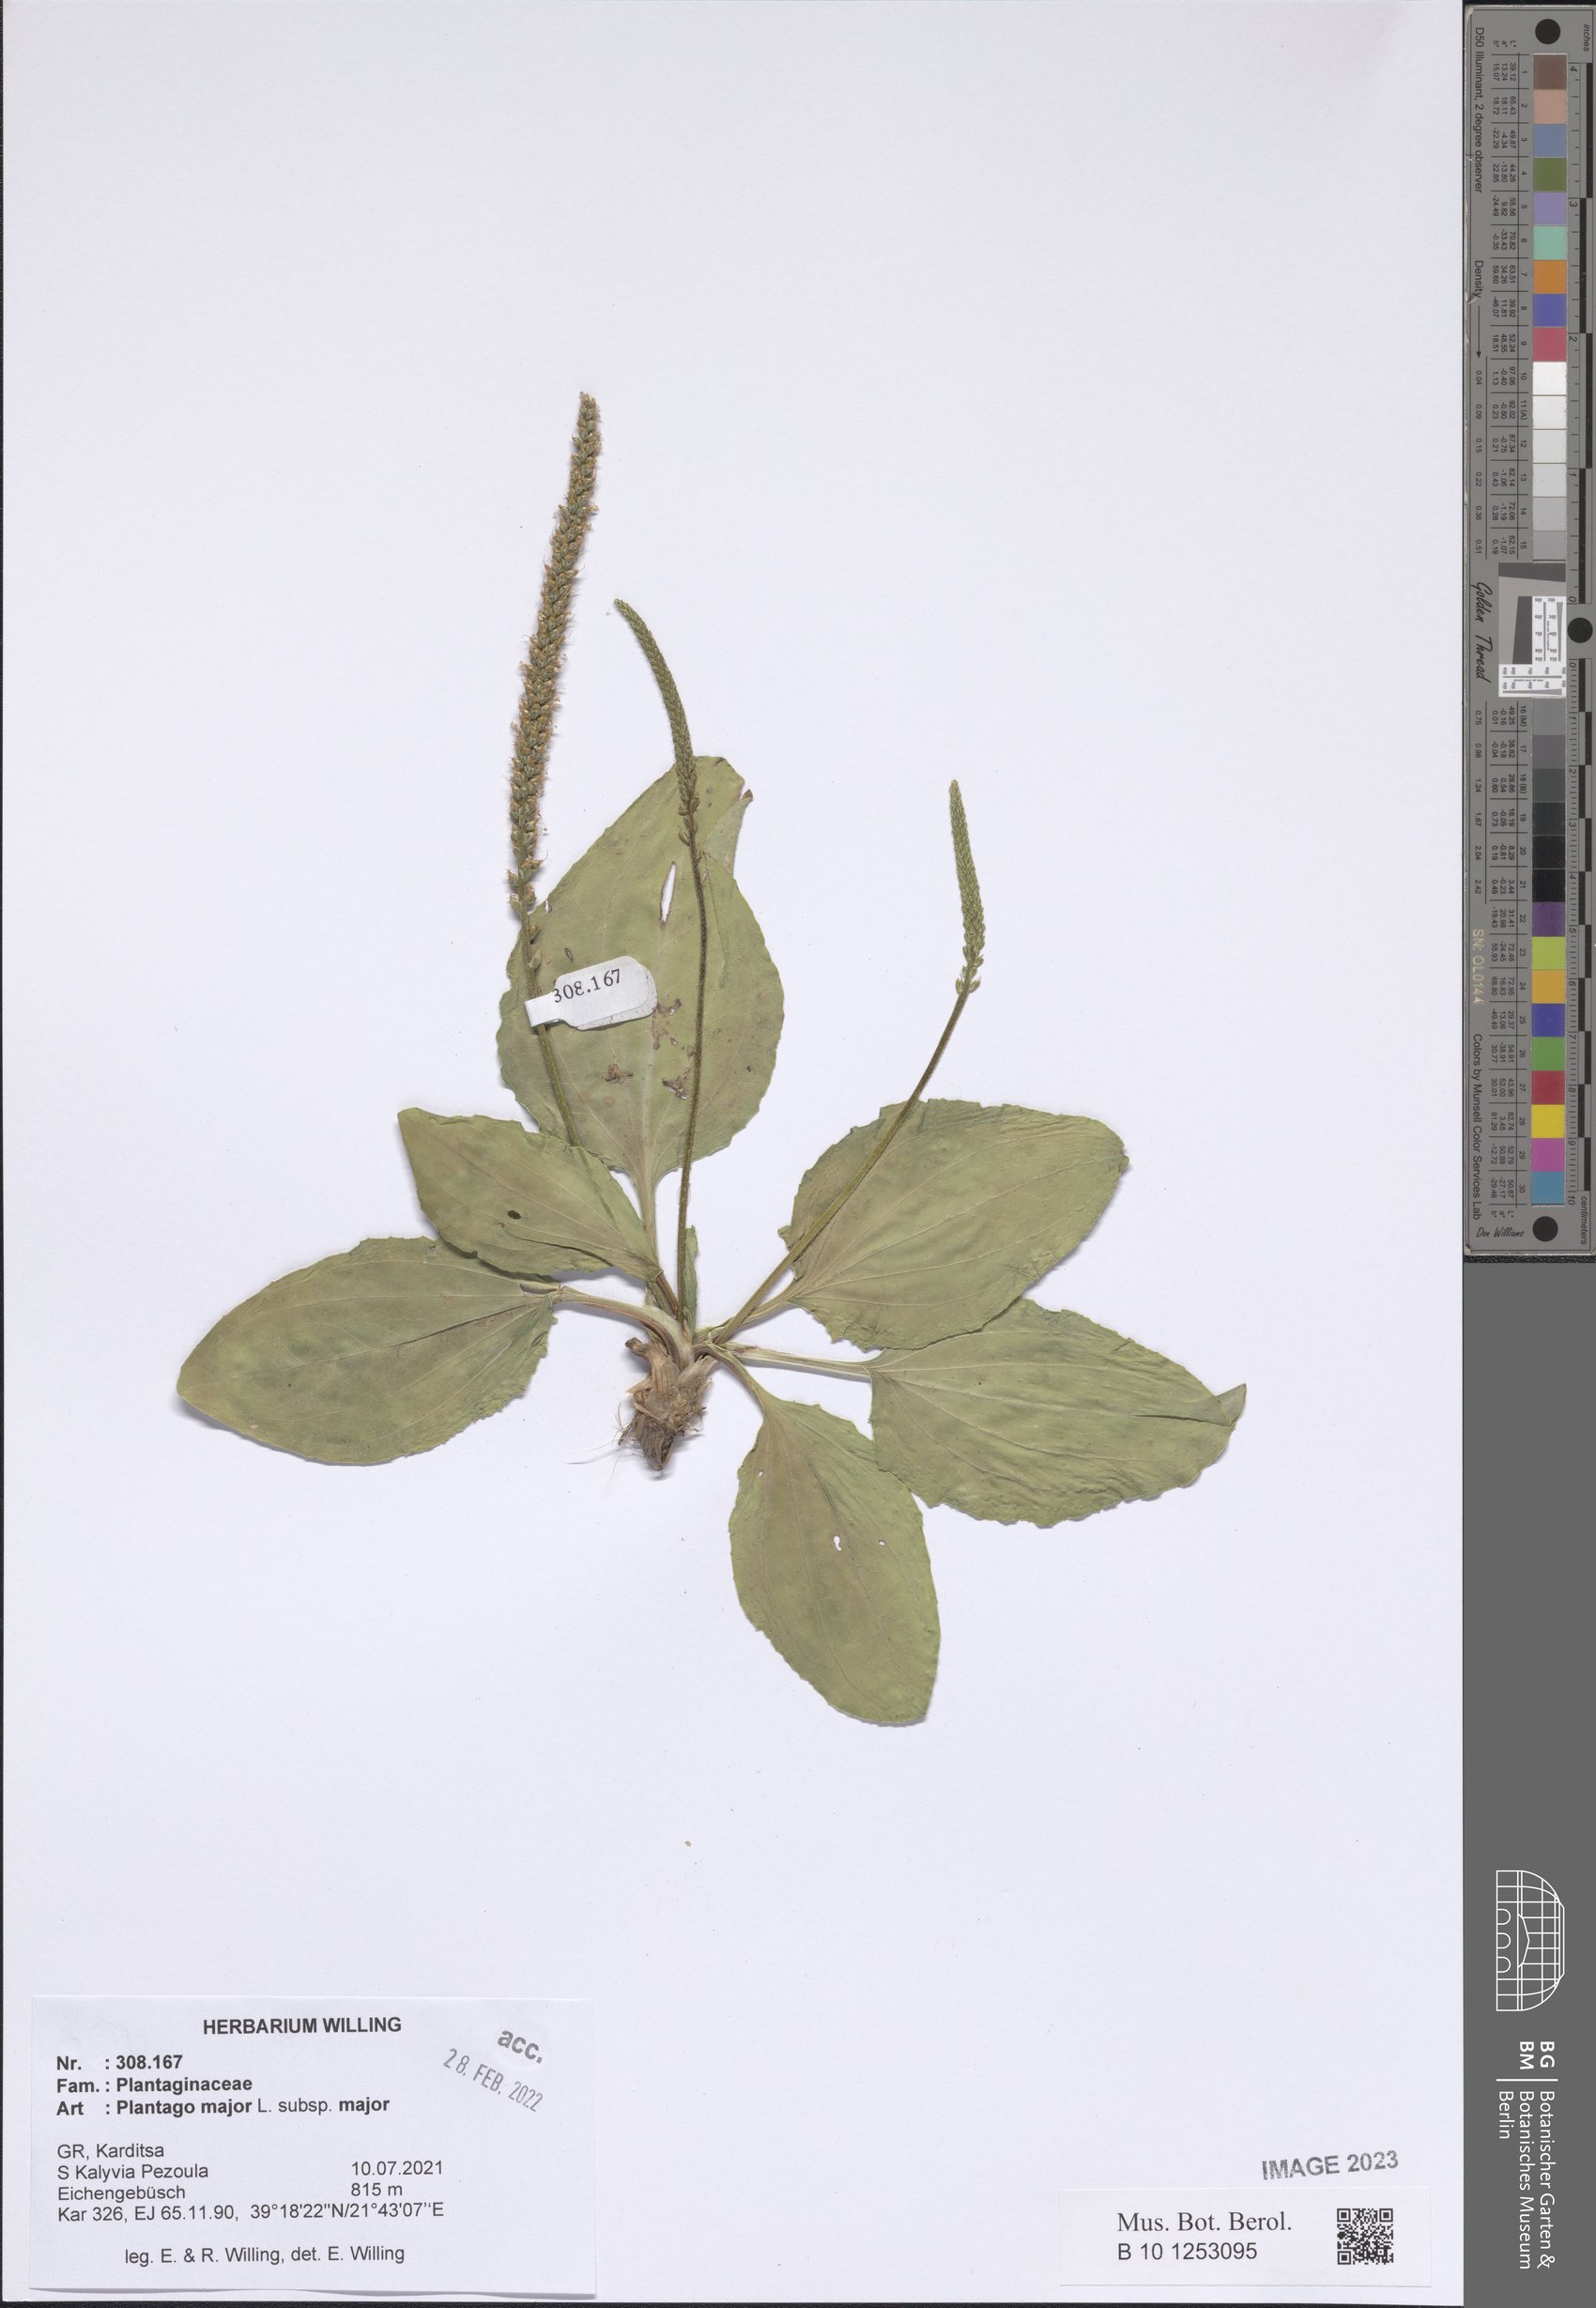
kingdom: Plantae
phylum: Tracheophyta
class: Magnoliopsida
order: Lamiales
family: Plantaginaceae
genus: Plantago
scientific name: Plantago major
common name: Common plantain
